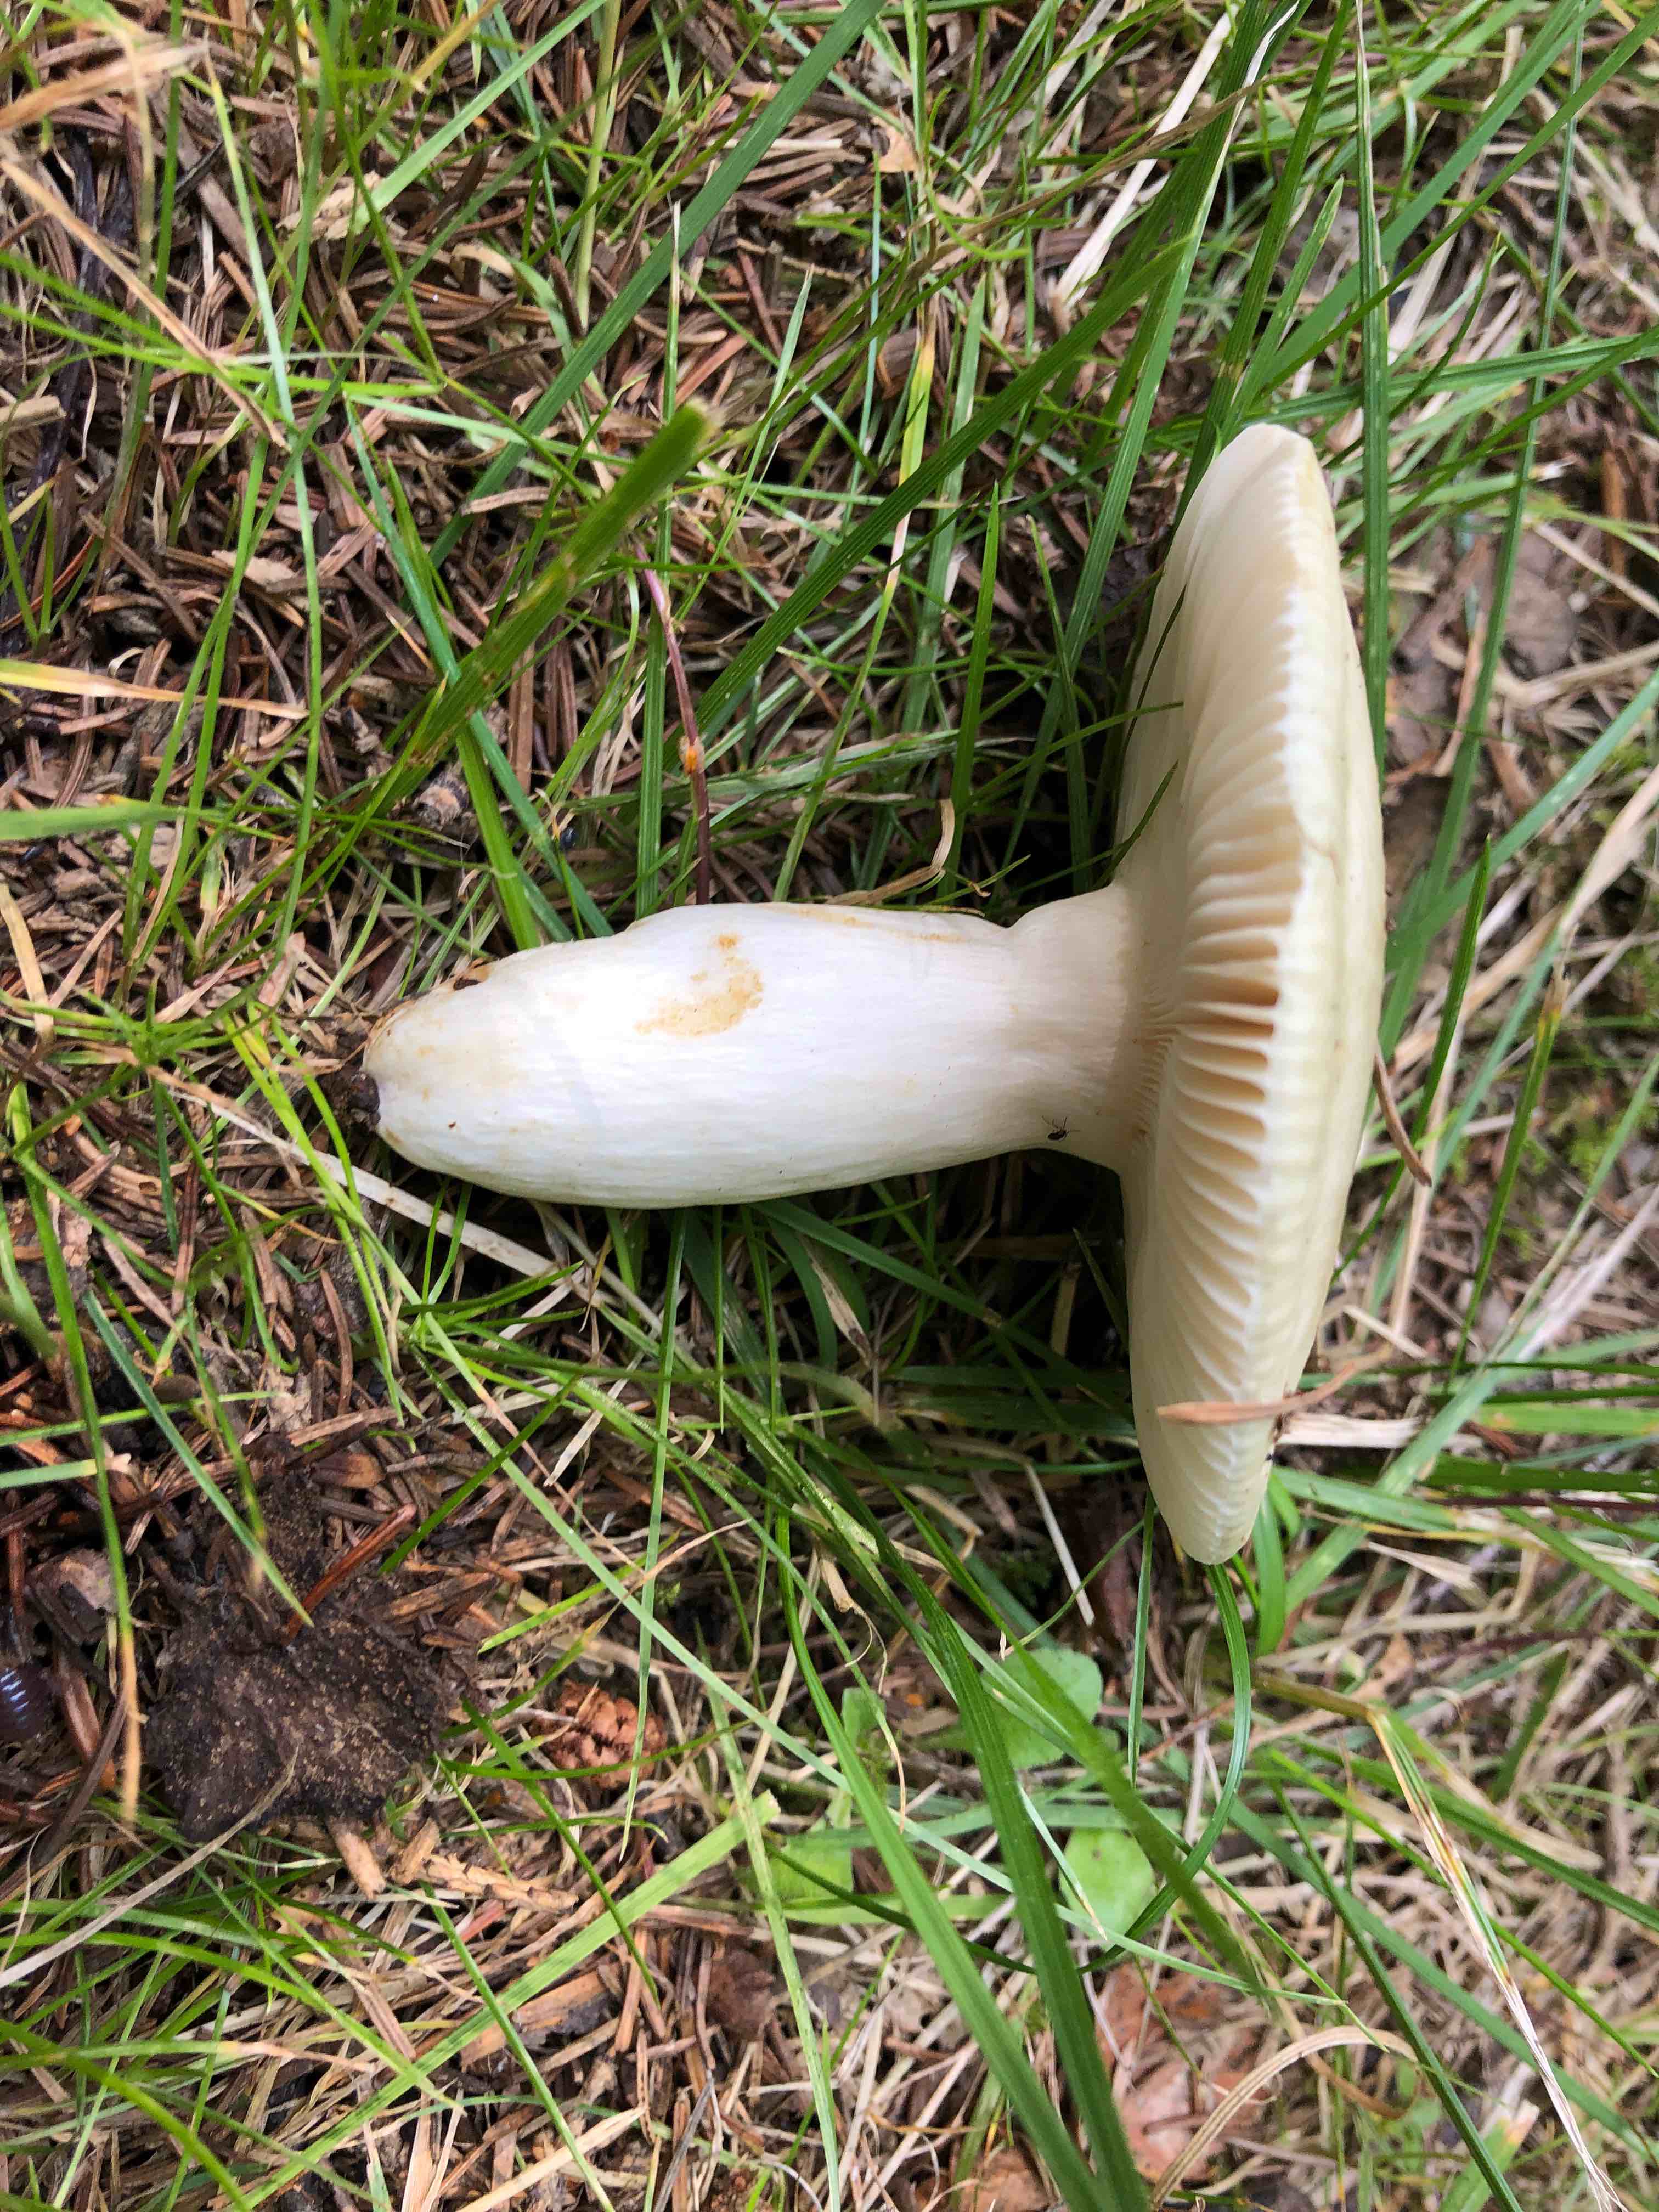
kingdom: Fungi
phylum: Basidiomycota
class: Agaricomycetes
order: Russulales
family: Russulaceae
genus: Russula
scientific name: Russula
